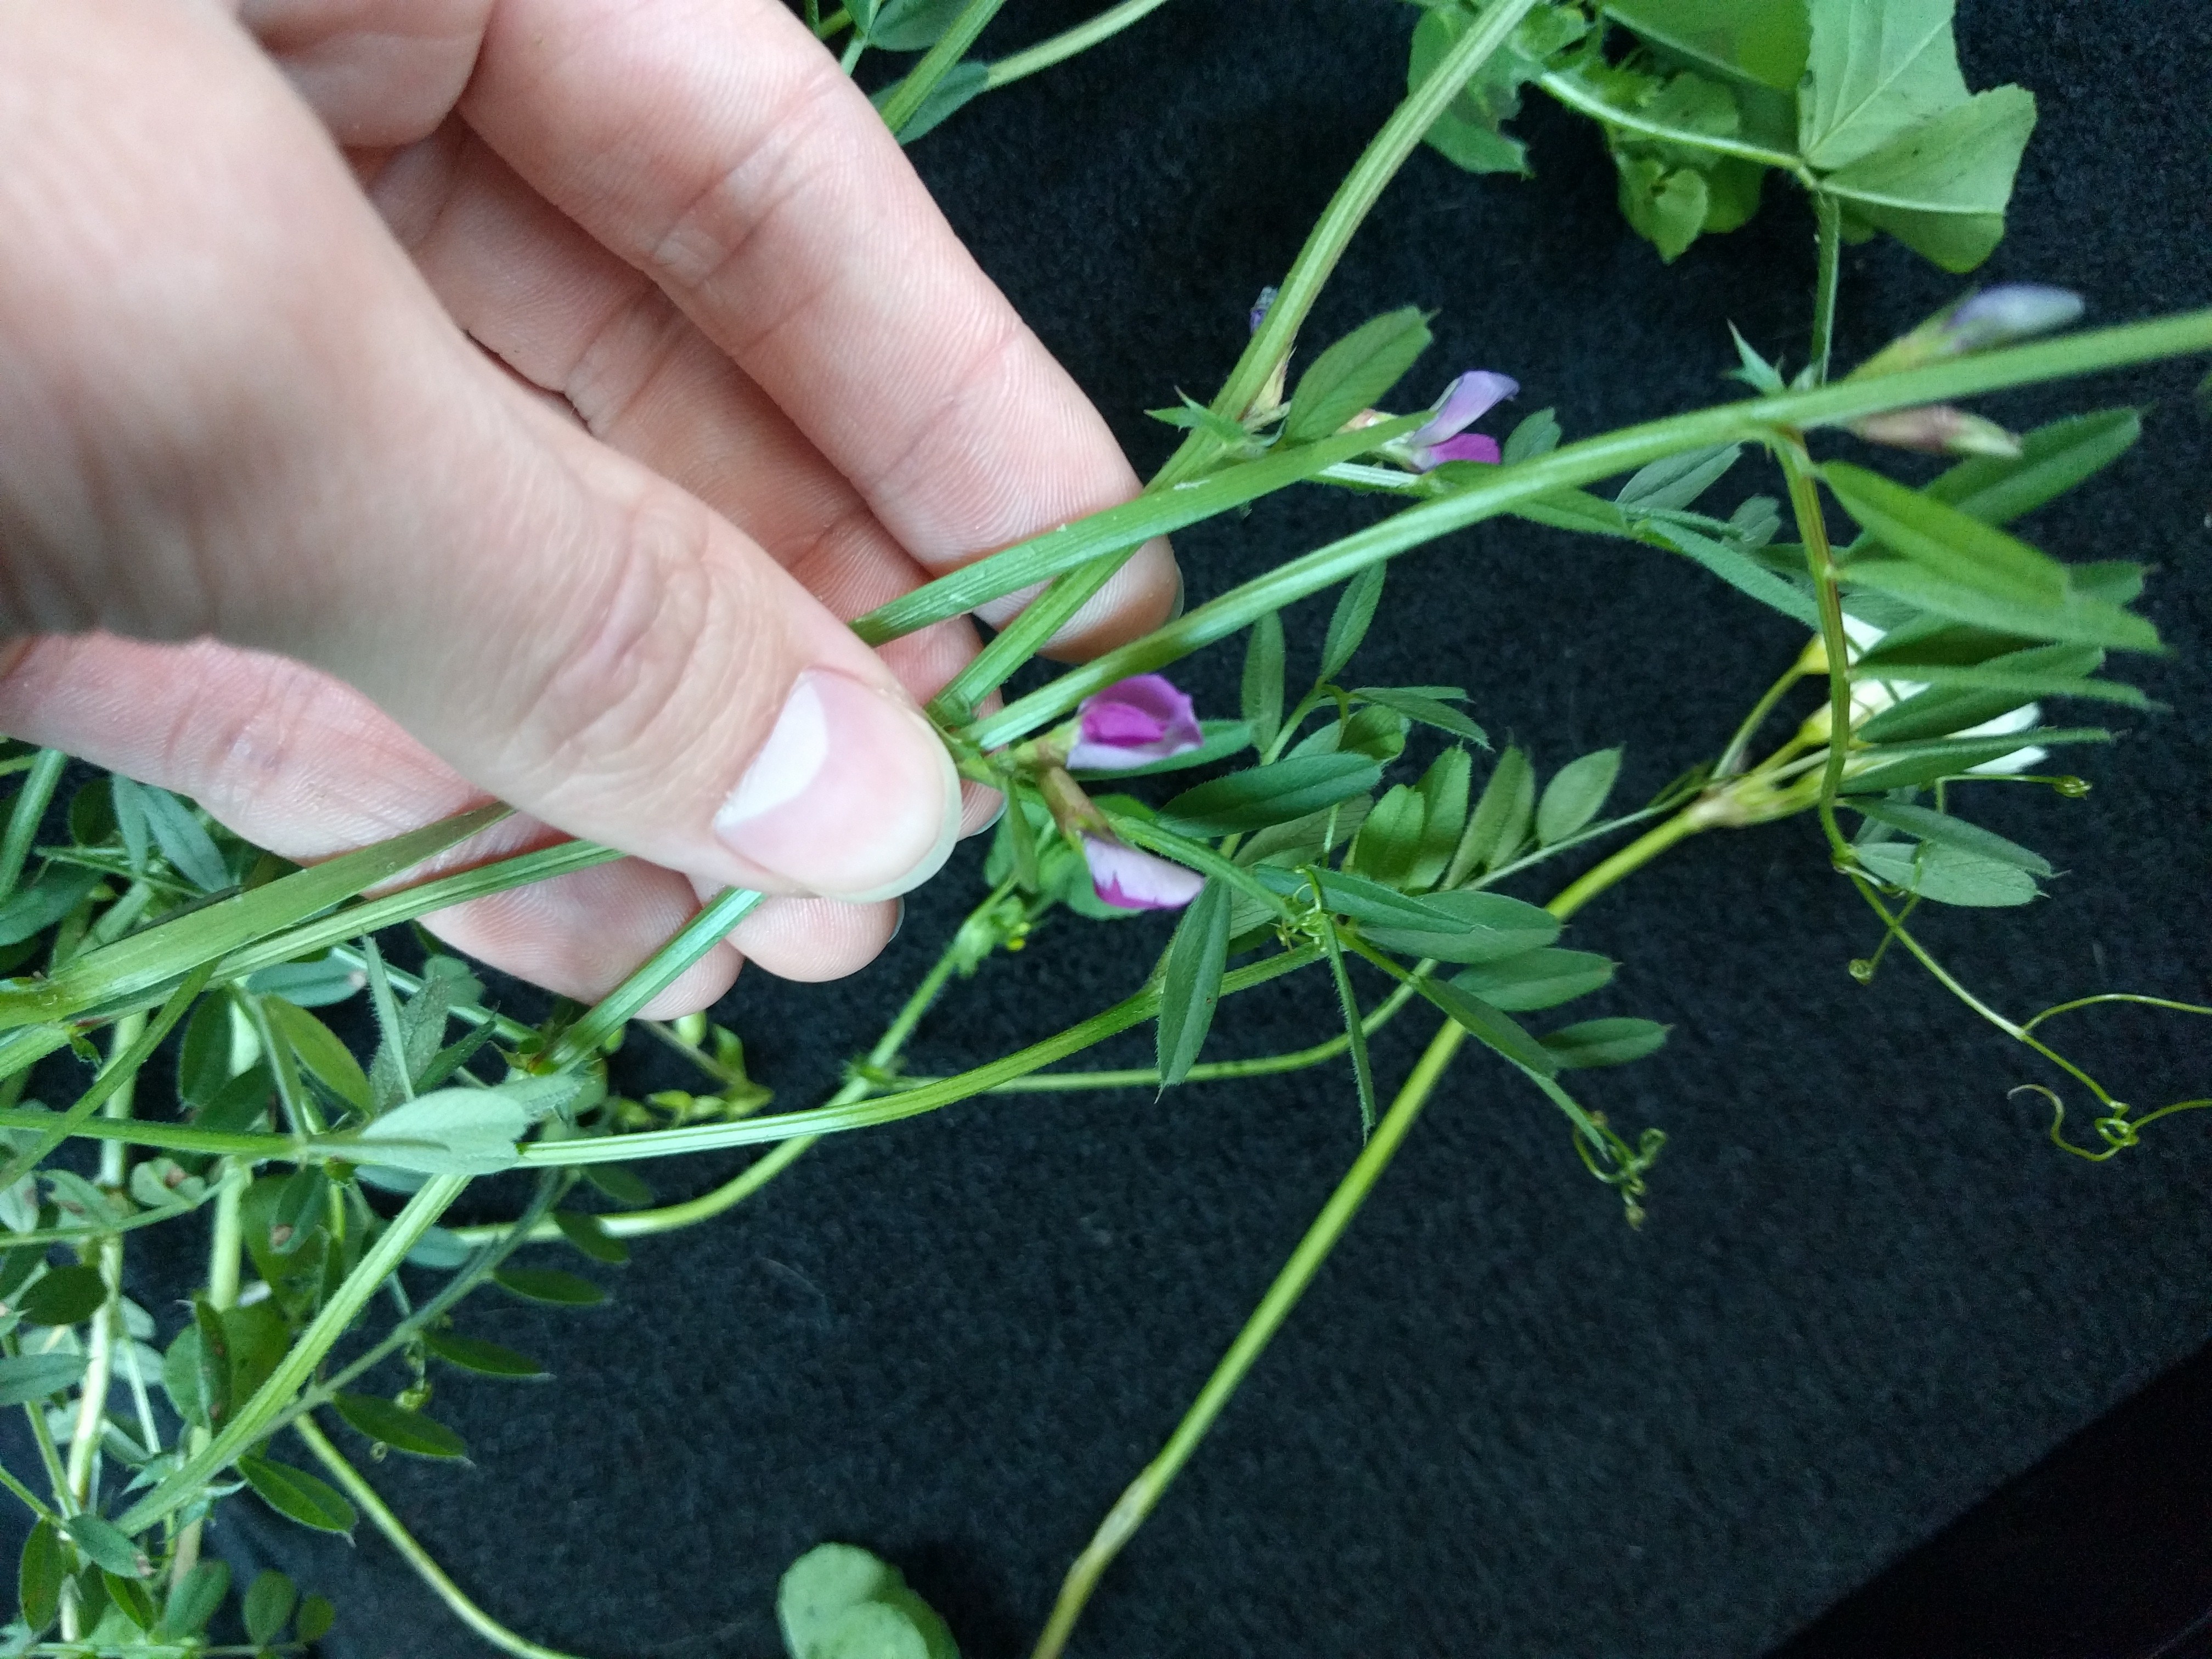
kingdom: Plantae
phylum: Tracheophyta
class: Magnoliopsida
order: Fabales
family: Fabaceae
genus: Vicia
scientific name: Vicia sativa
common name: Garden vetch
